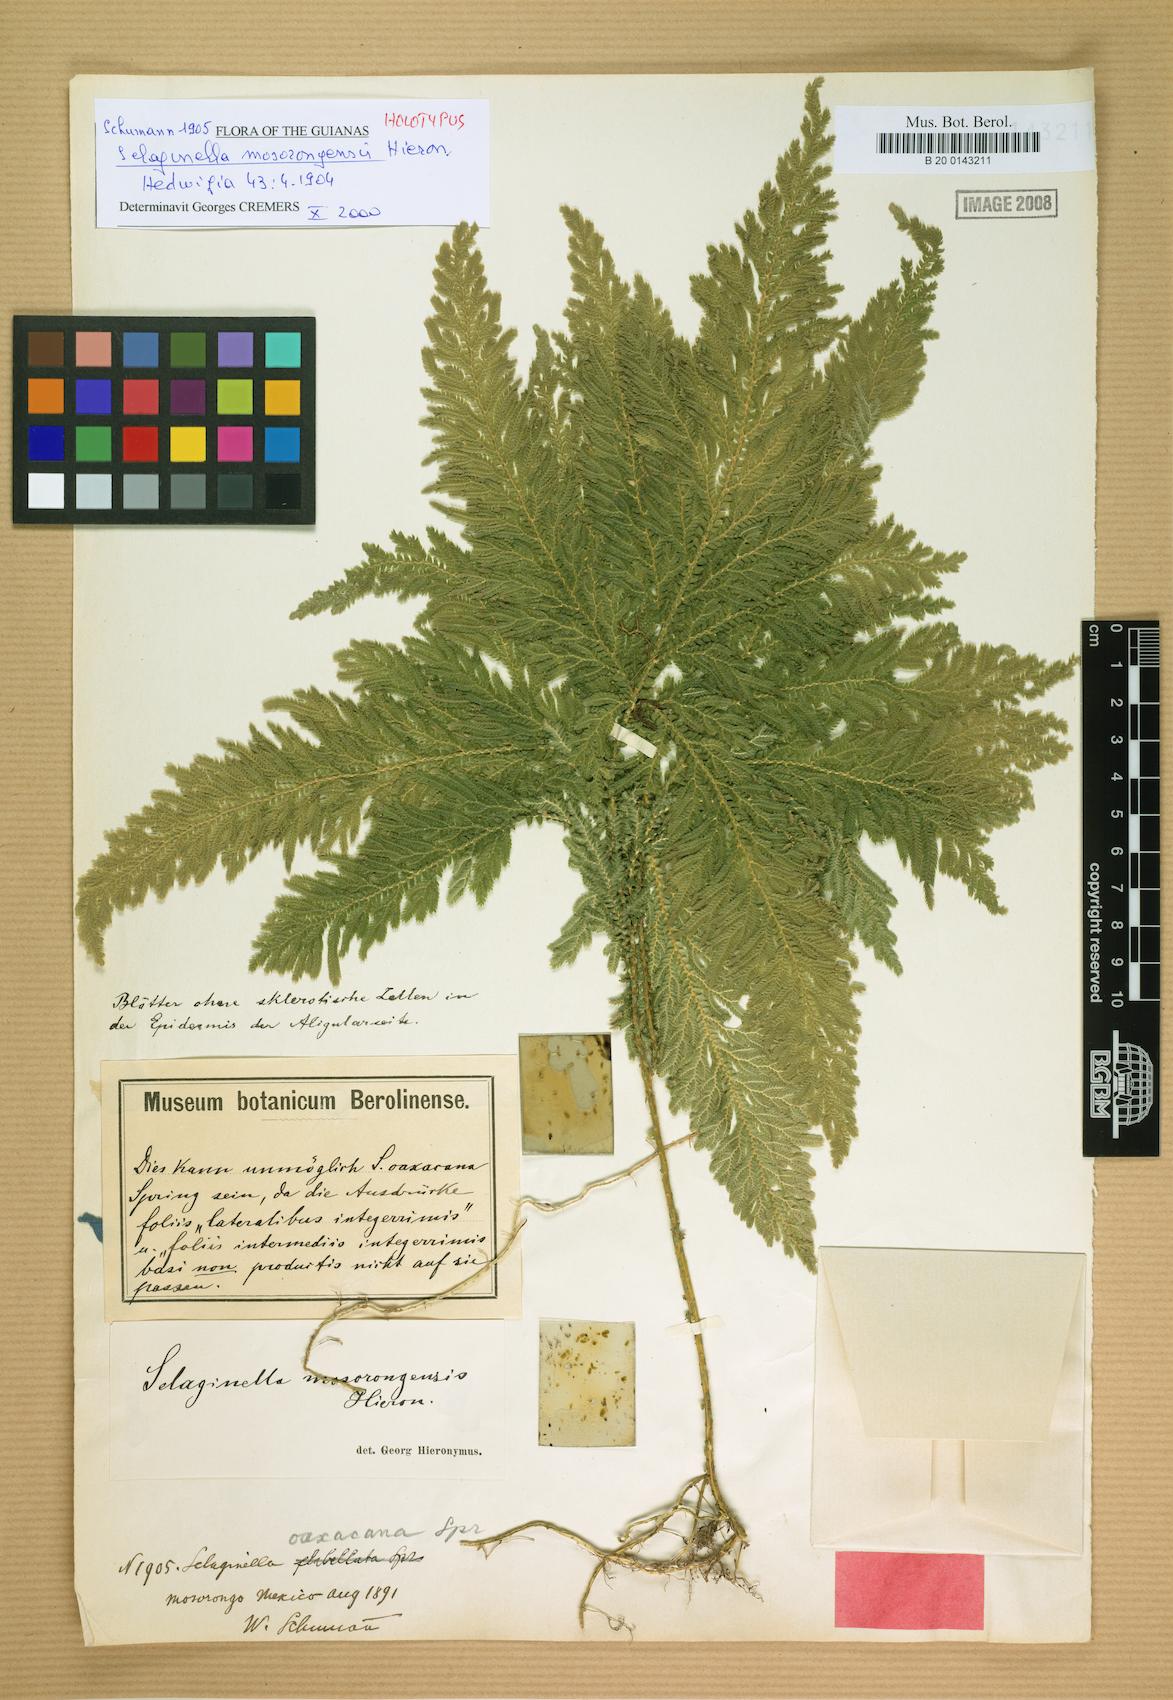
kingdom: Plantae
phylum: Tracheophyta
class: Lycopodiopsida
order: Selaginellales
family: Selaginellaceae
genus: Selaginella
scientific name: Selaginella mosorongensis
